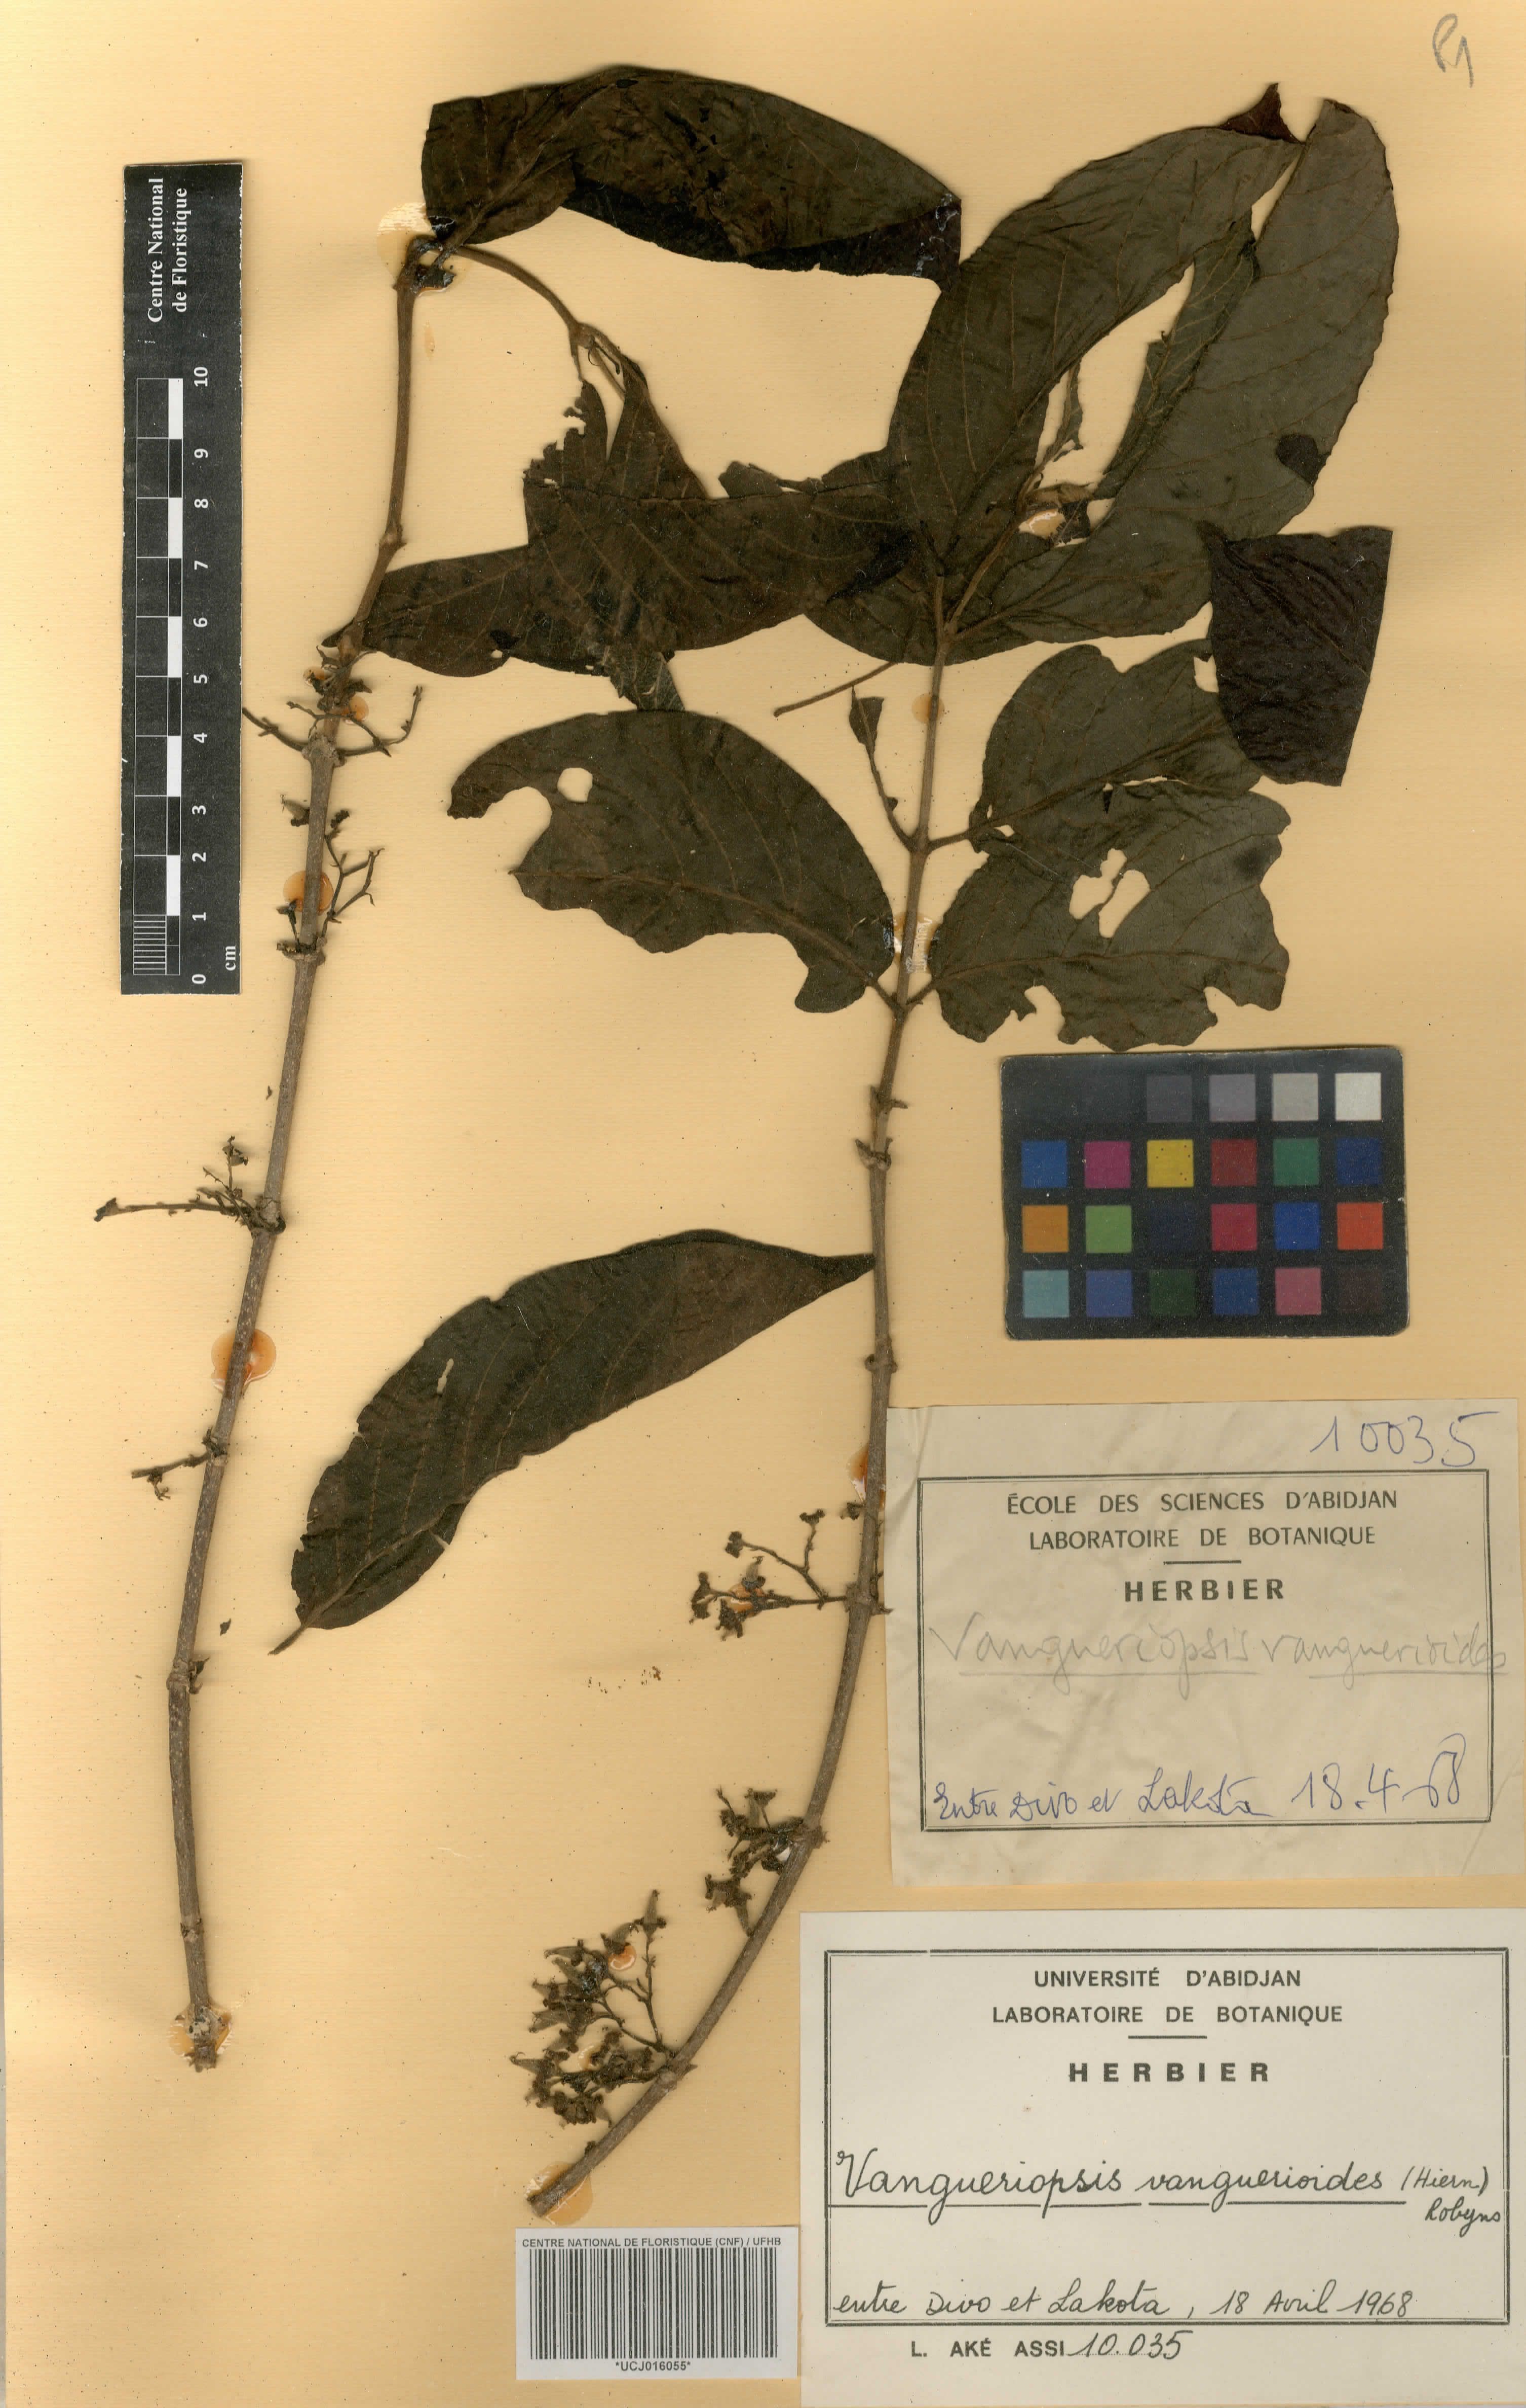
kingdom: Plantae
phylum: Tracheophyta
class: Magnoliopsida
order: Gentianales
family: Rubiaceae
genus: Vangueriella
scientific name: Vangueriella vanguerioides
